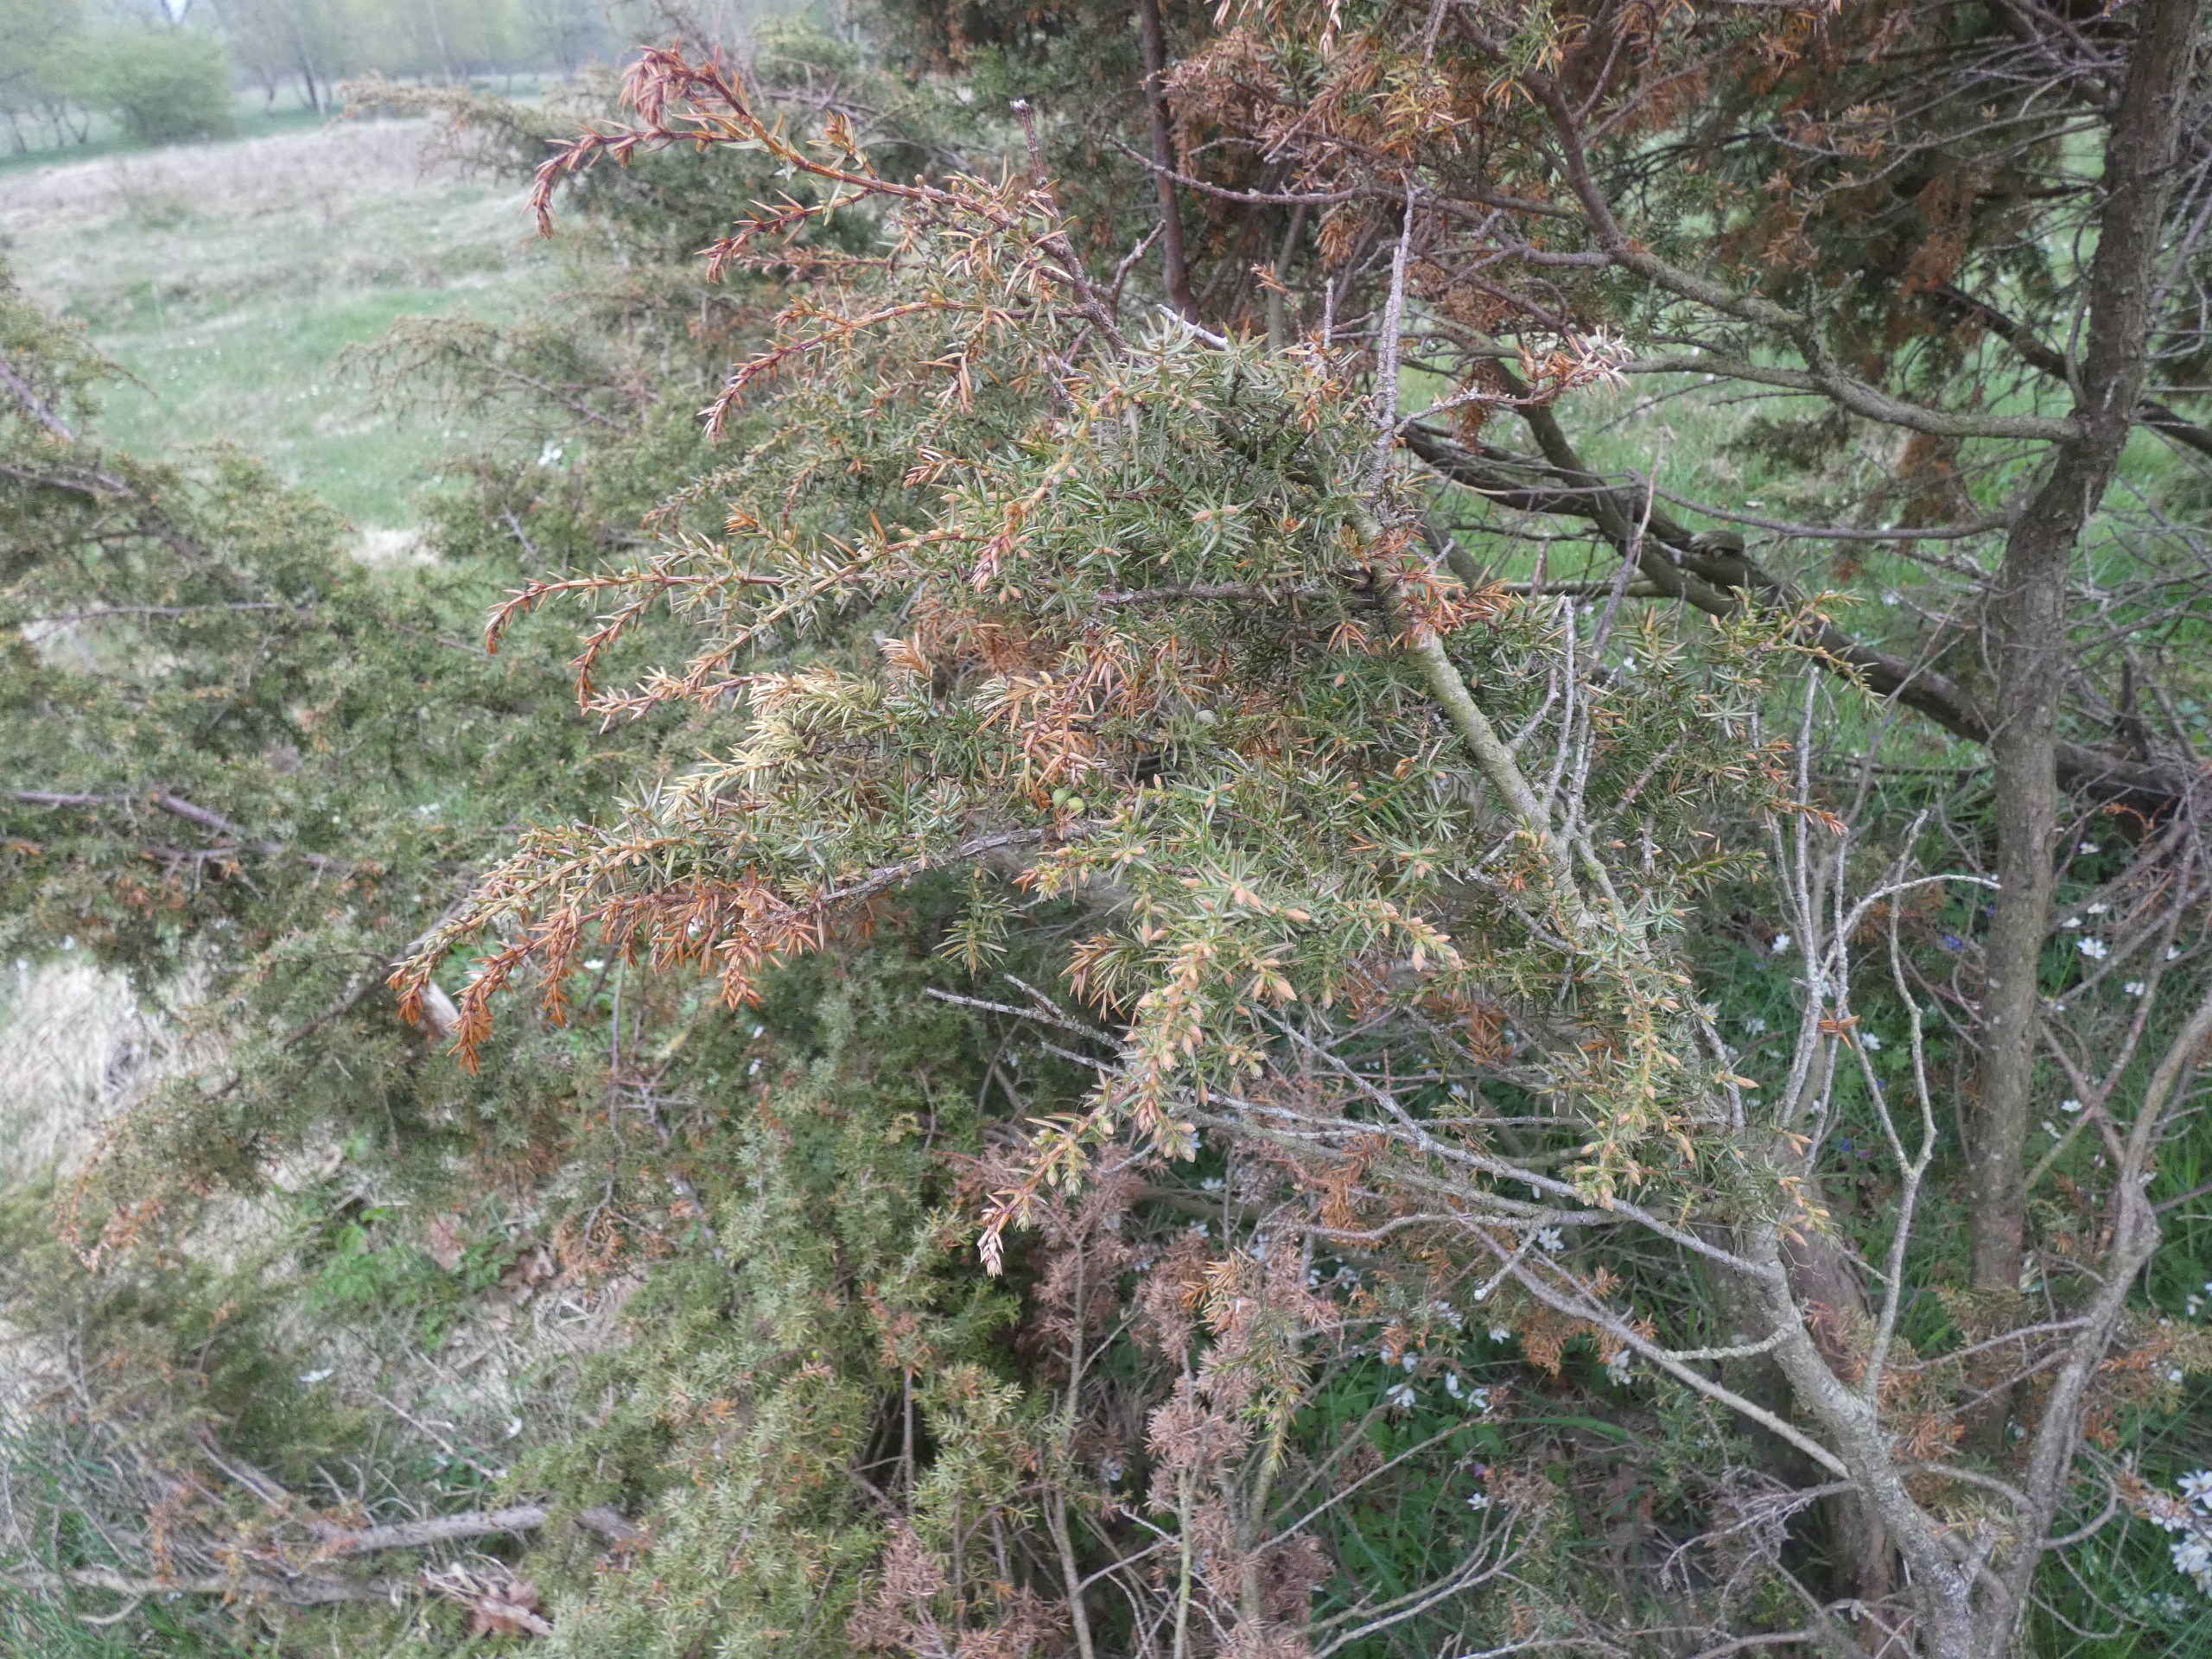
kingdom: Plantae
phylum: Tracheophyta
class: Pinopsida
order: Pinales
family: Cupressaceae
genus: Juniperus
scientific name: Juniperus communis
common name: Almindelig ene
